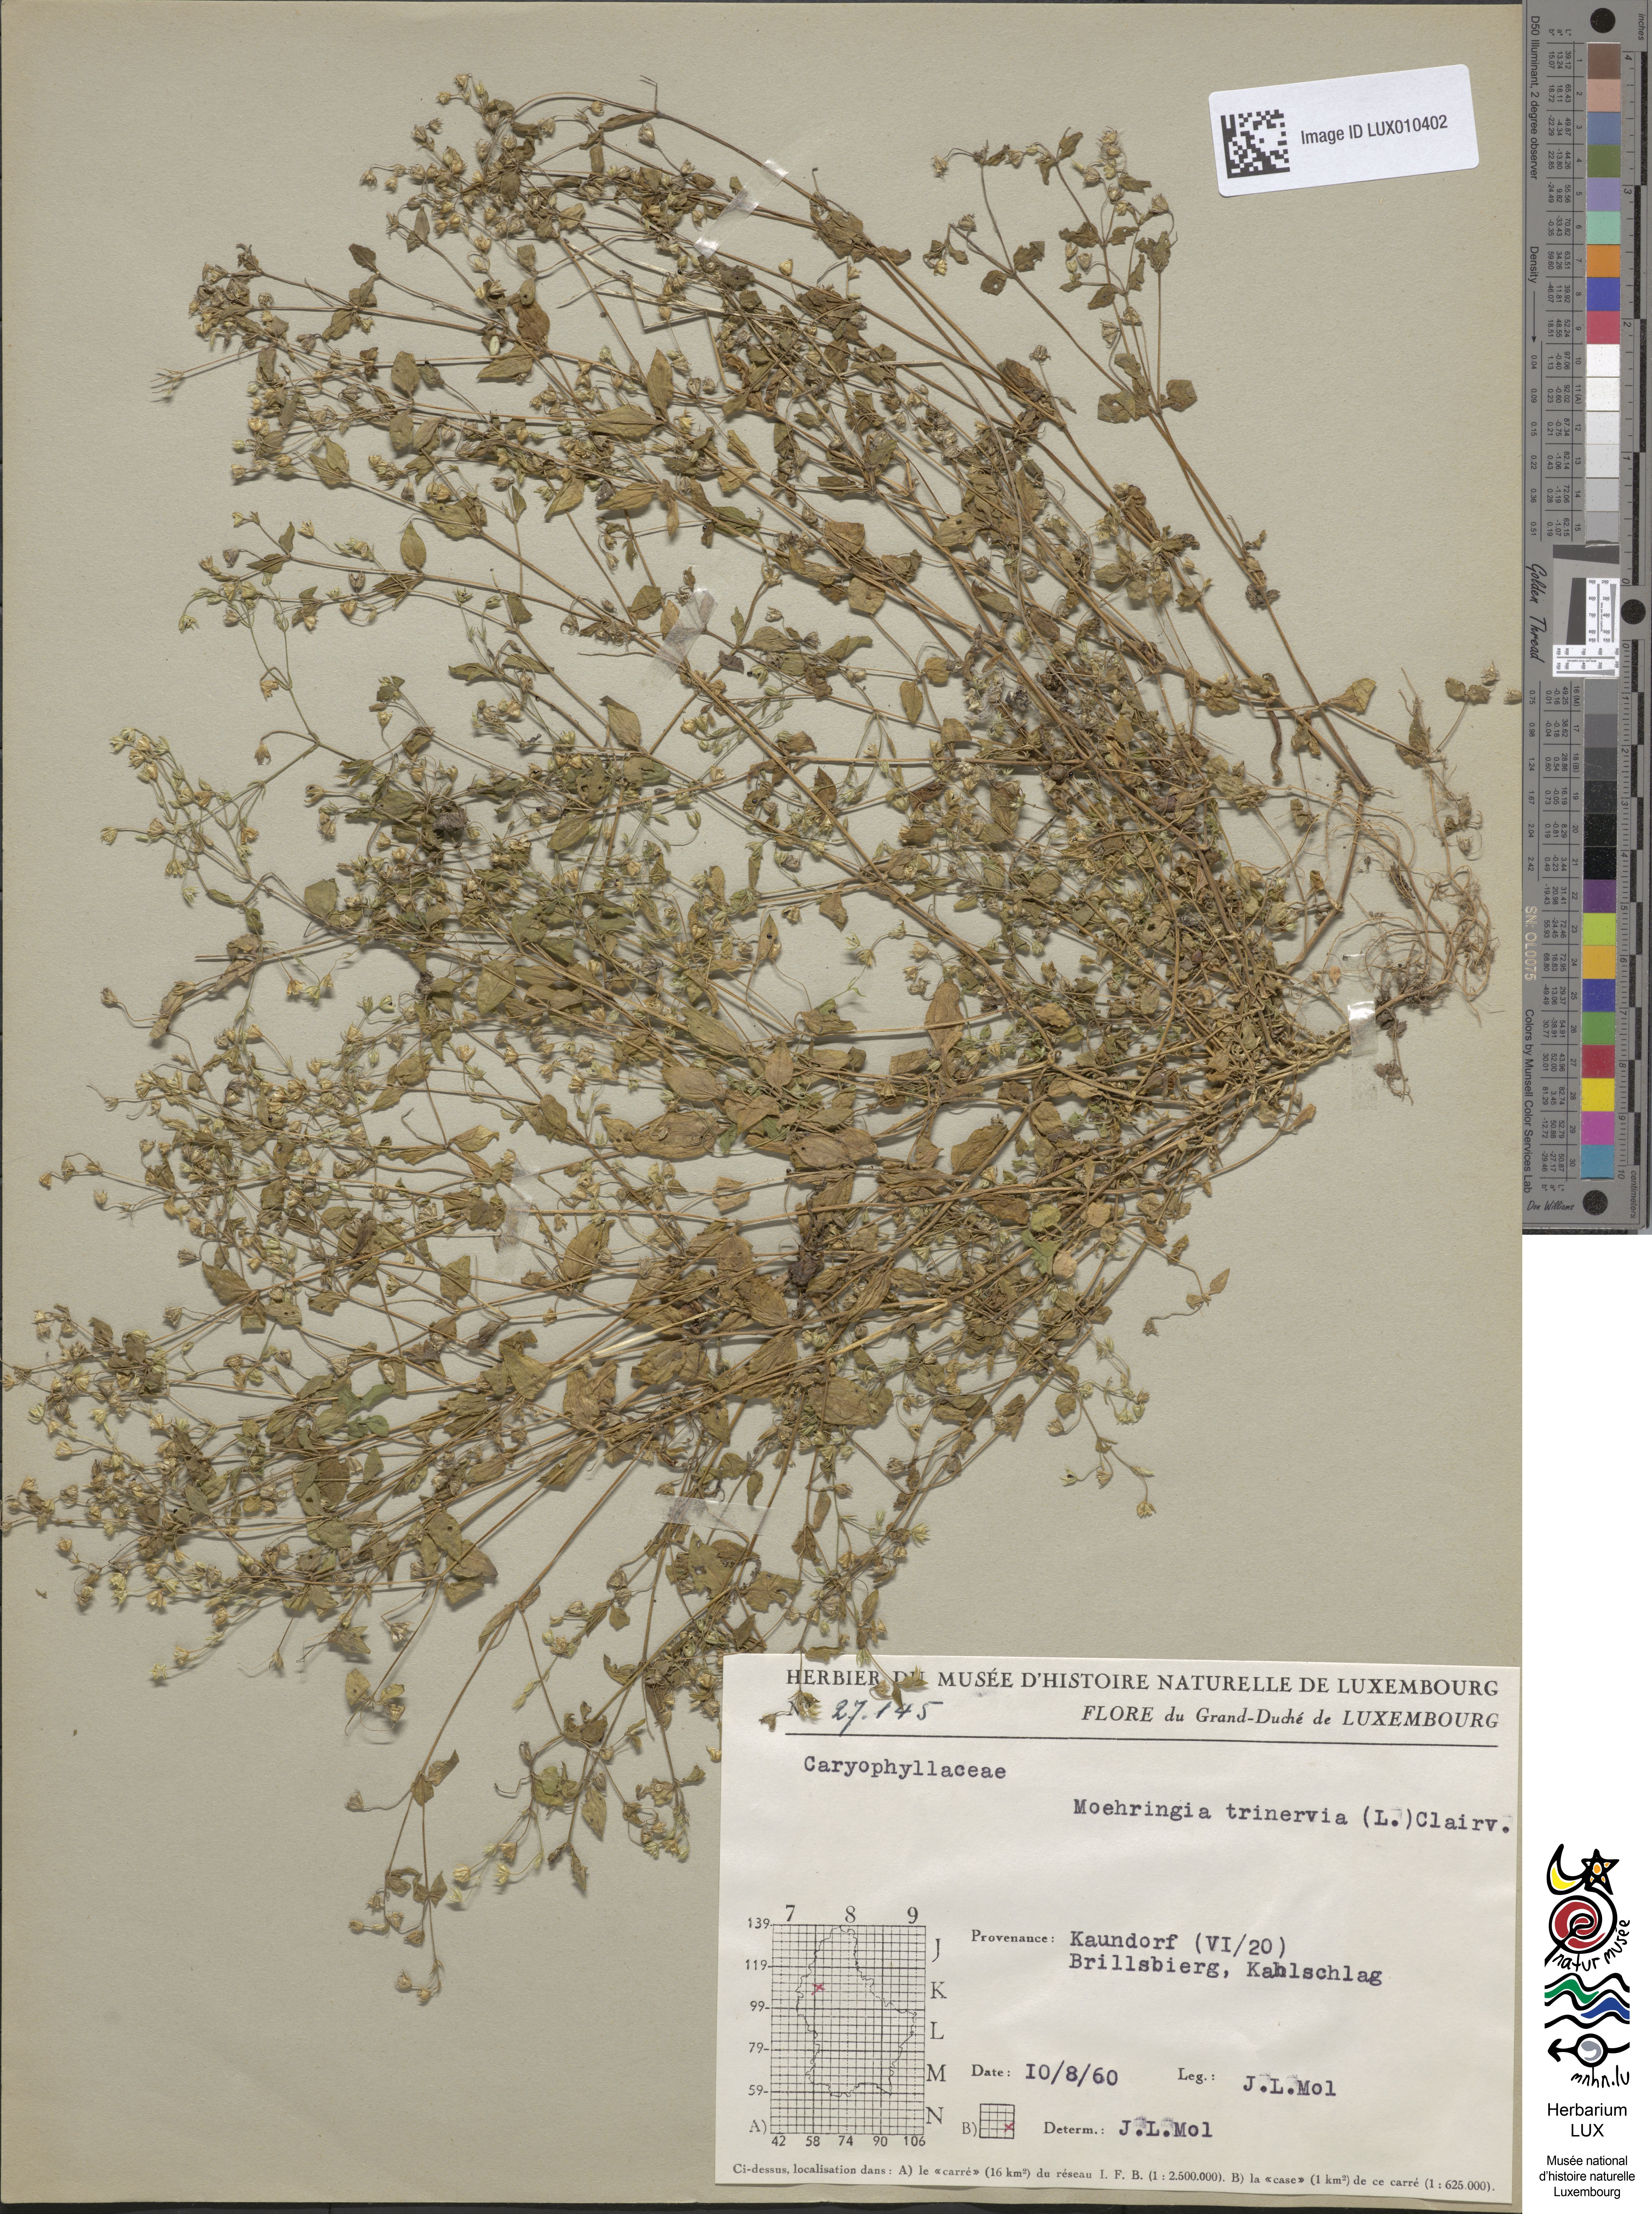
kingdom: Plantae
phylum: Tracheophyta
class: Magnoliopsida
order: Caryophyllales
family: Caryophyllaceae
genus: Moehringia
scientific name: Moehringia trinervia
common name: Three-nerved sandwort
